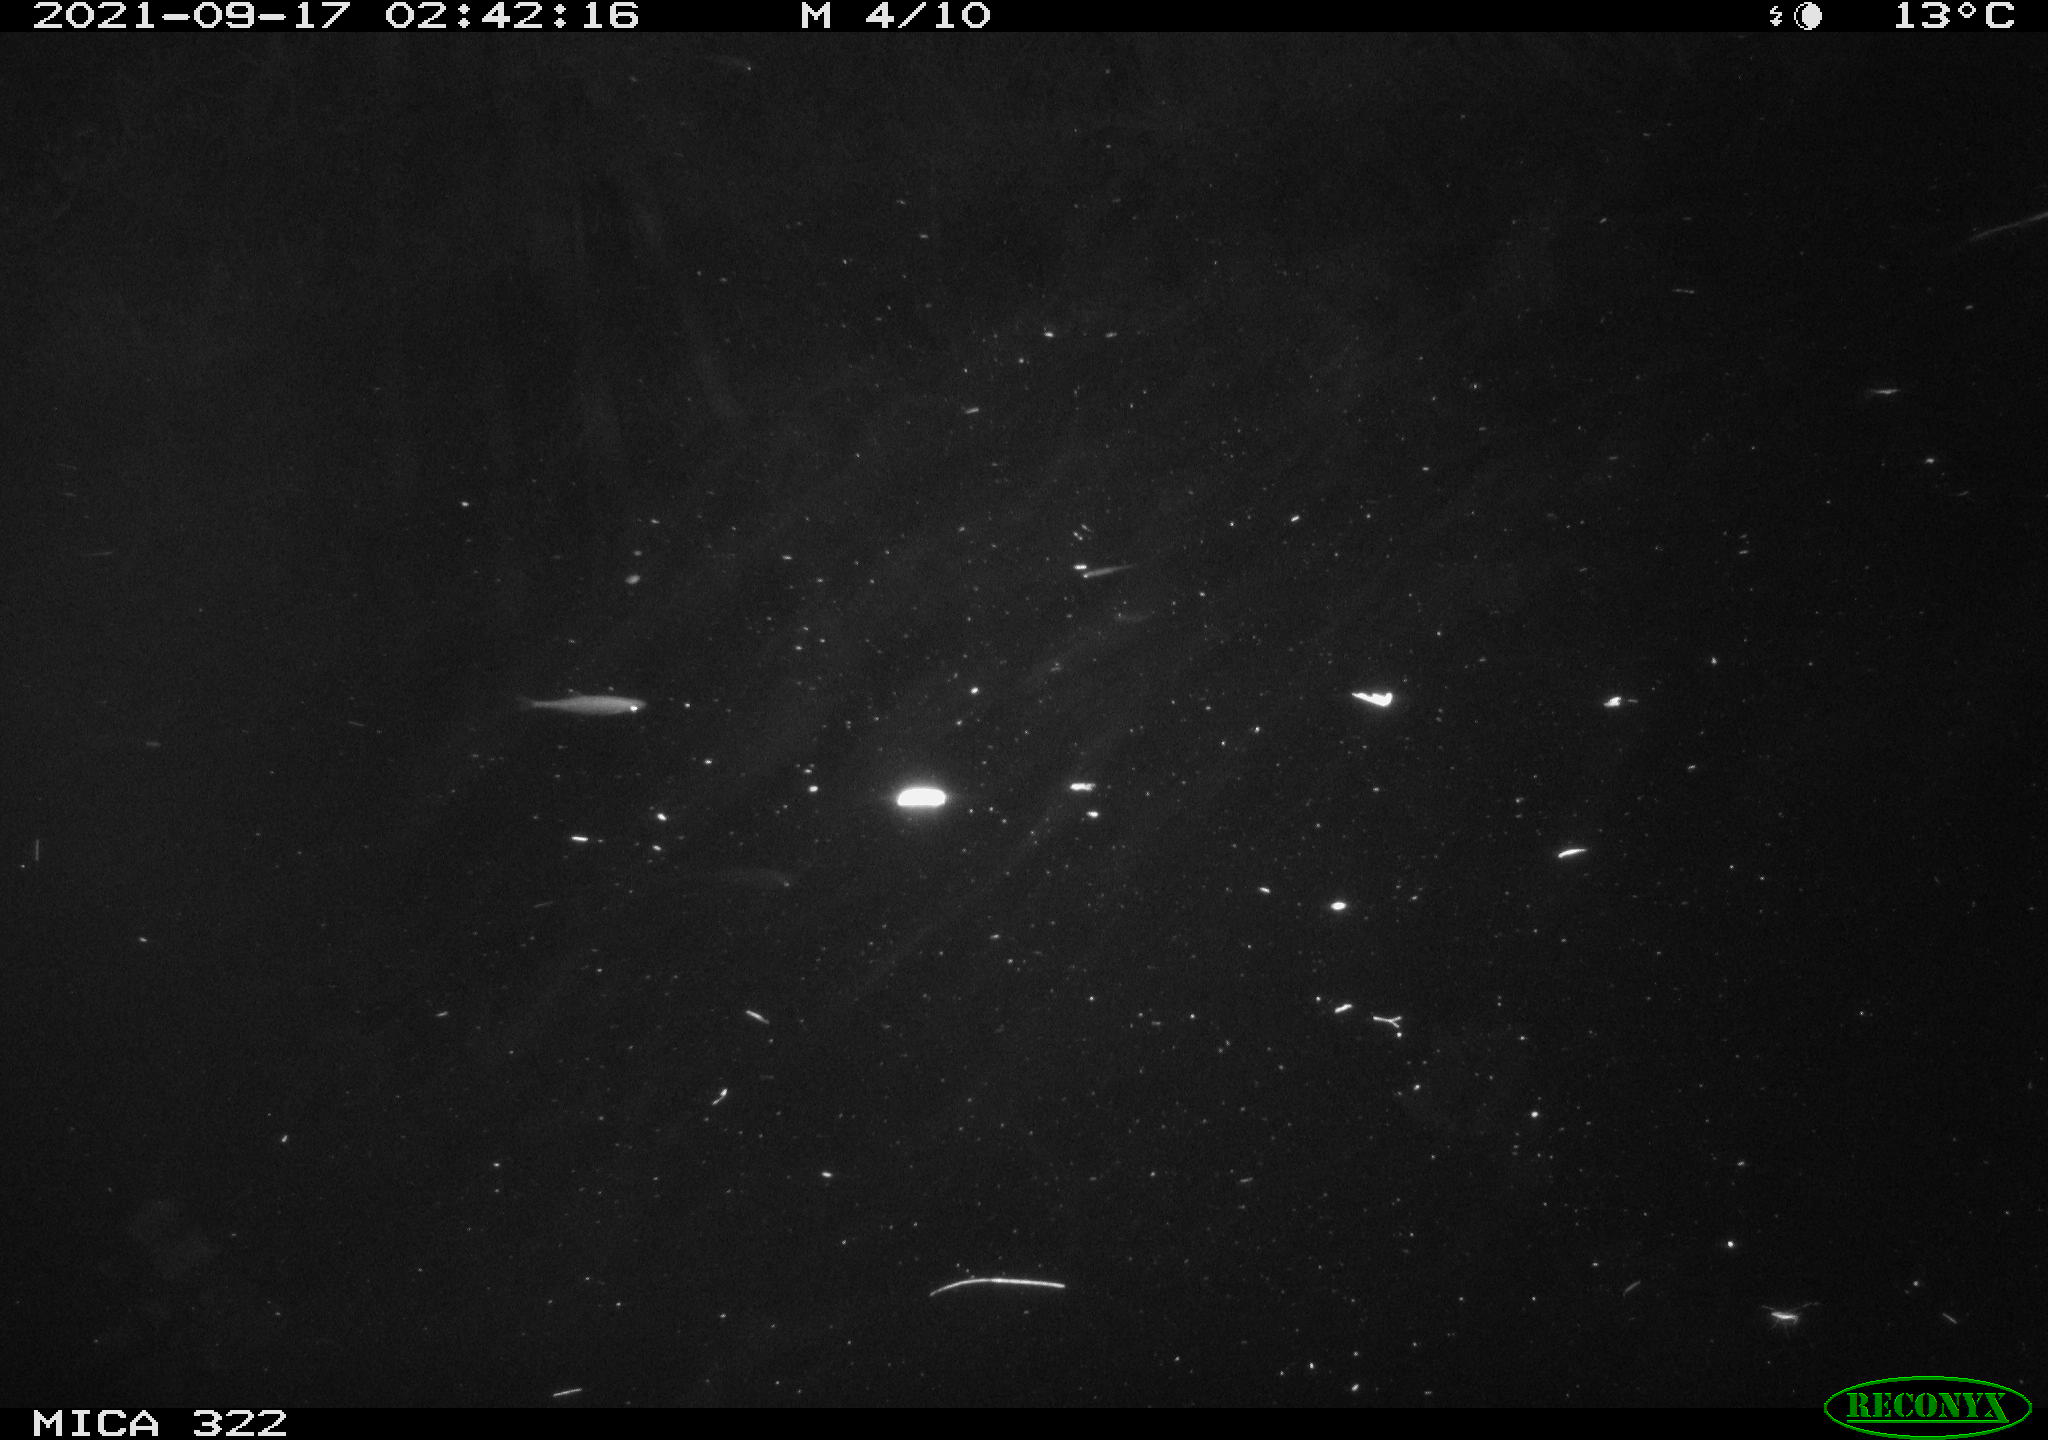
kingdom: Animalia
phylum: Chordata
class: Mammalia
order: Rodentia
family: Muridae
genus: Rattus
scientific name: Rattus norvegicus
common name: Brown rat
